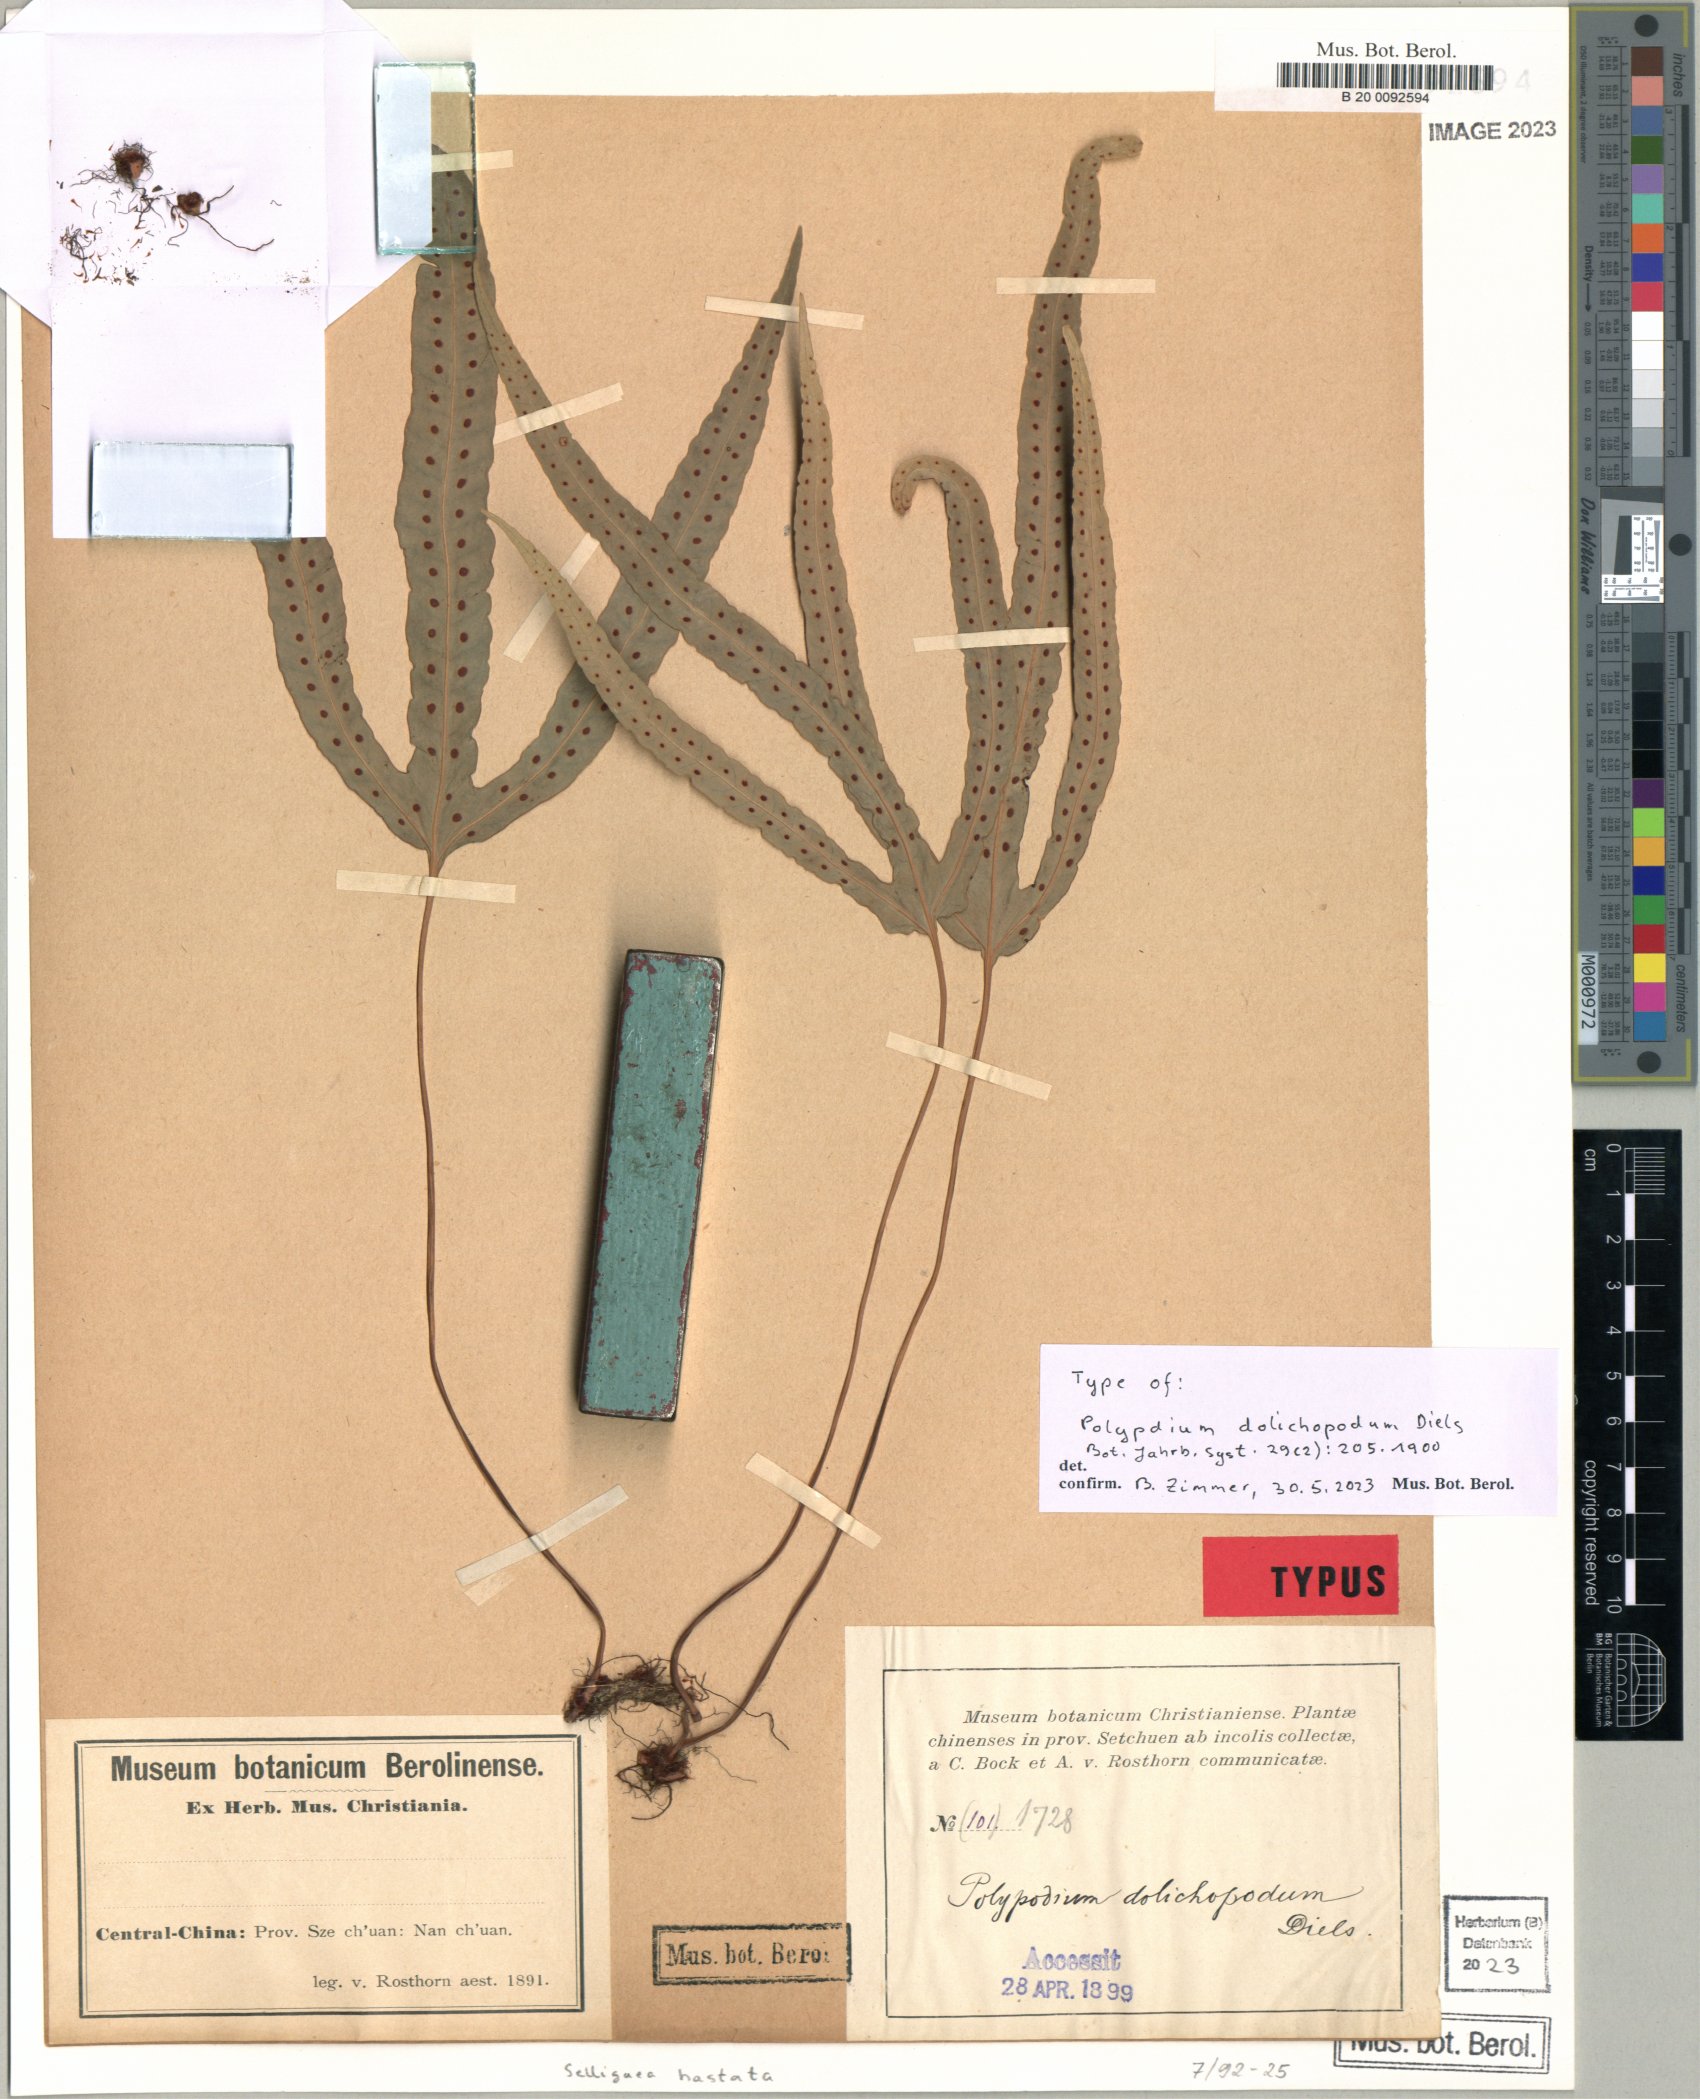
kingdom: Plantae
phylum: Tracheophyta
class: Polypodiopsida
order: Polypodiales
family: Polypodiaceae
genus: Selliguea
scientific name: Selliguea hastata
